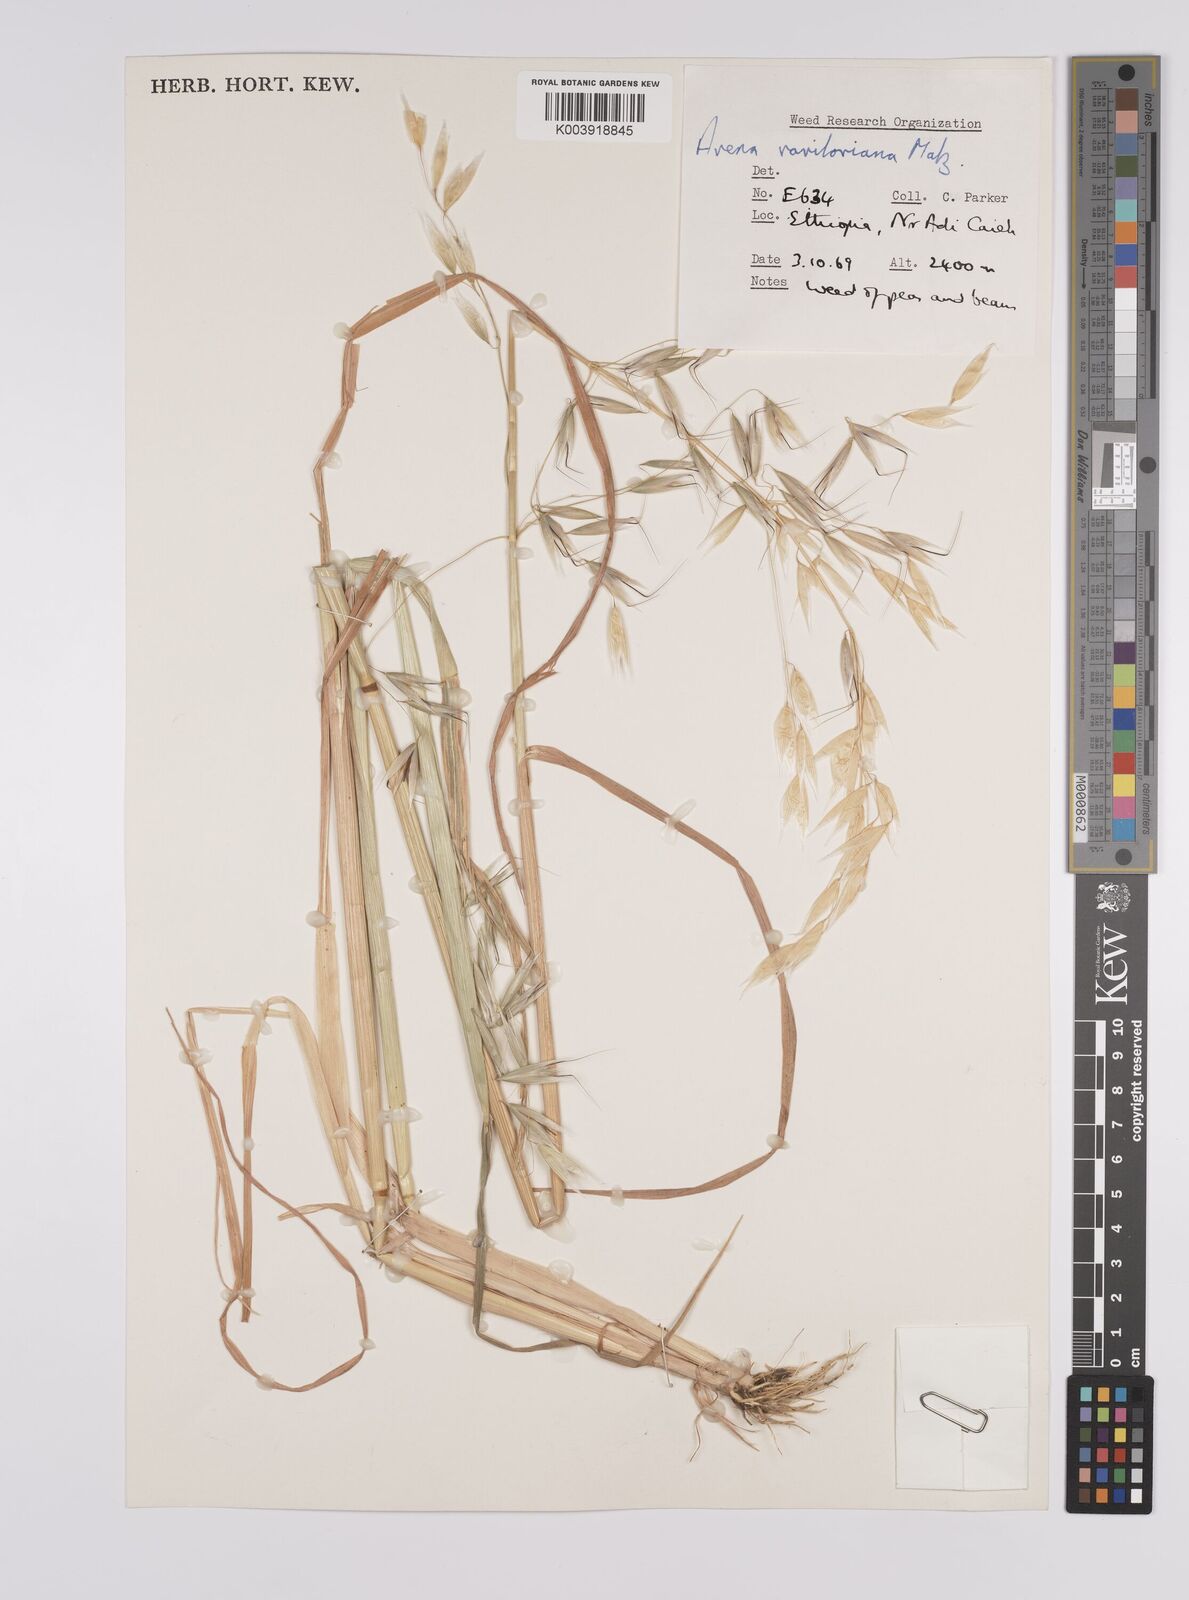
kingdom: Plantae
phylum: Tracheophyta
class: Liliopsida
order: Poales
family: Poaceae
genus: Avena
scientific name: Avena vaviloviana
